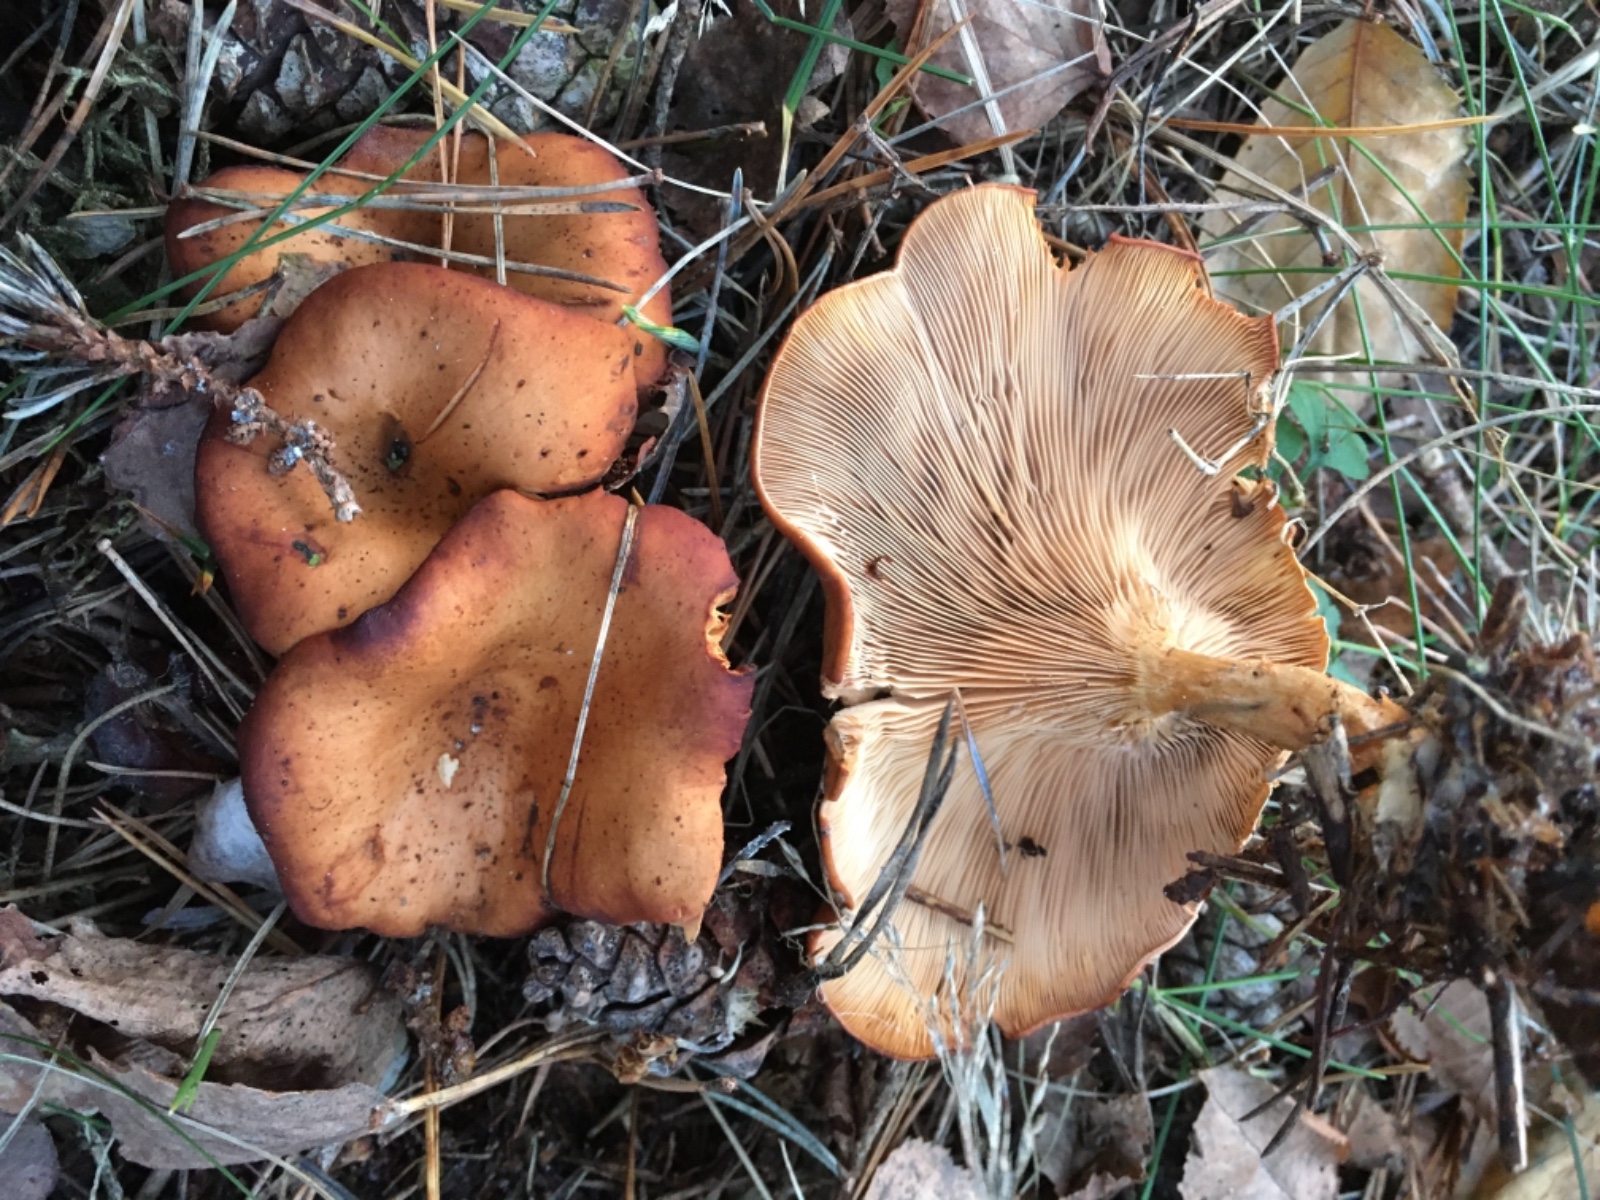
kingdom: Fungi
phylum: Basidiomycota
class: Agaricomycetes
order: Agaricales
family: Tricholomataceae
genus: Paralepista
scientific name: Paralepista flaccida
